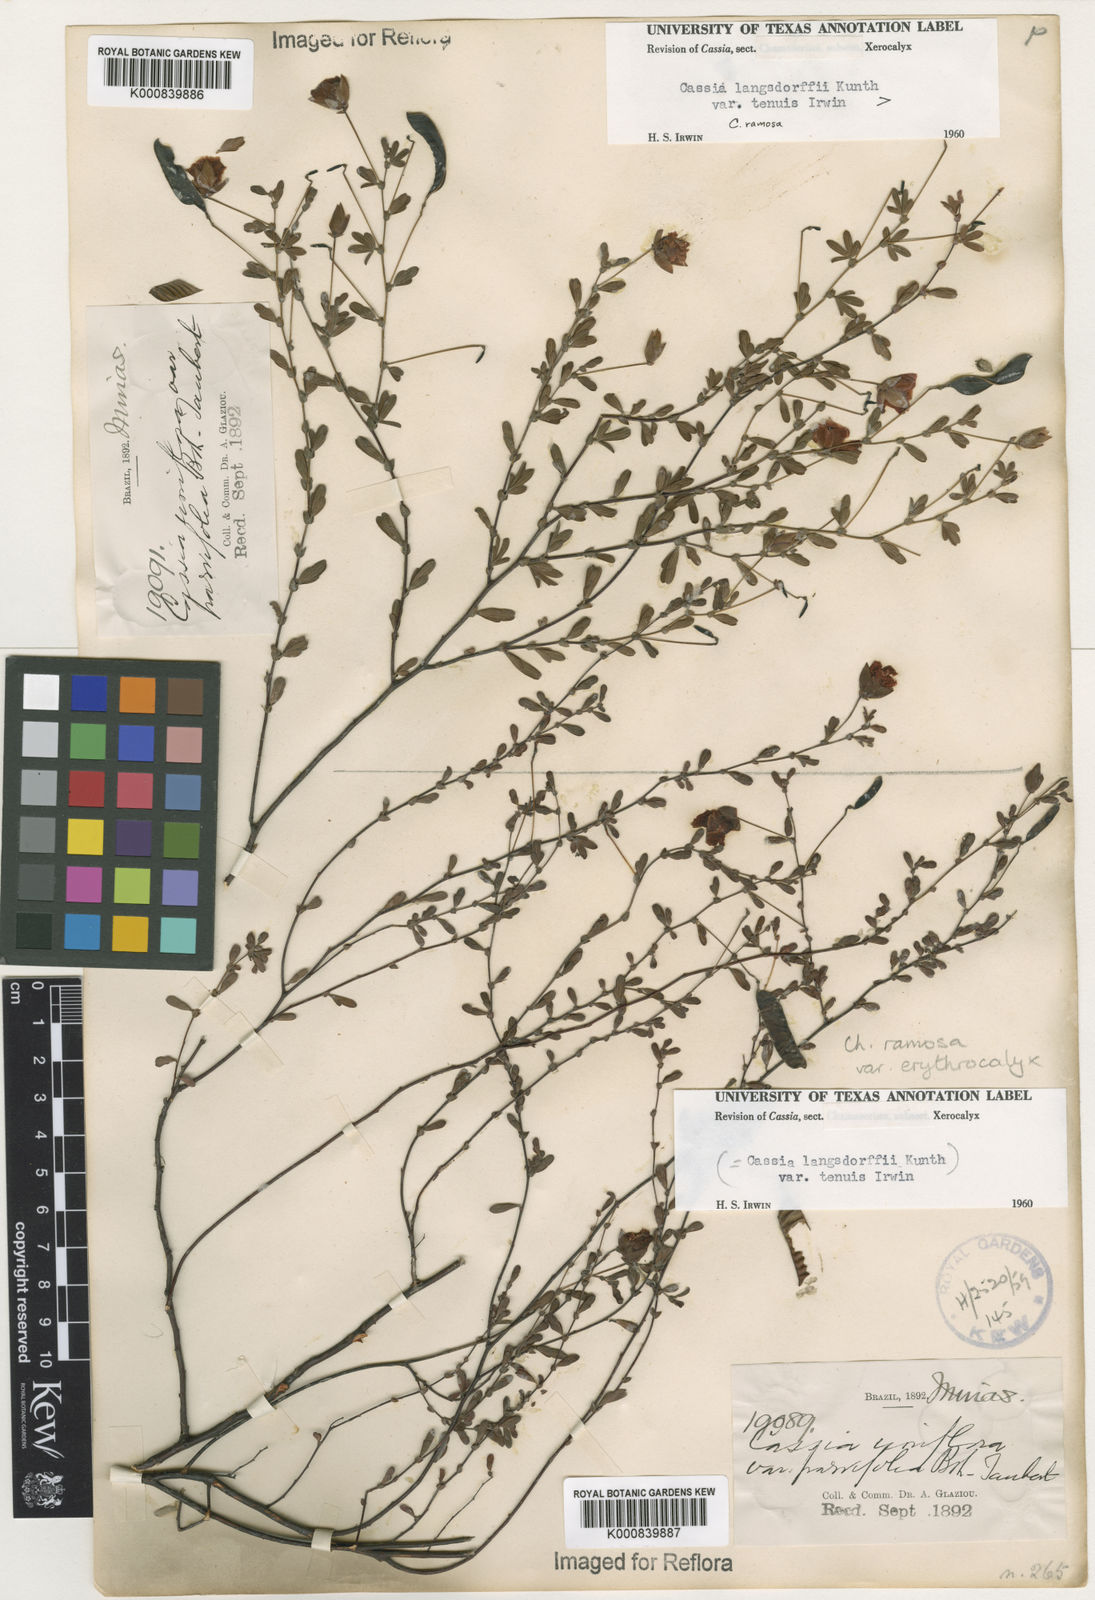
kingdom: Plantae
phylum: Tracheophyta
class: Magnoliopsida
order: Fabales
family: Fabaceae
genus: Chamaecrista
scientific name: Chamaecrista ramosa
